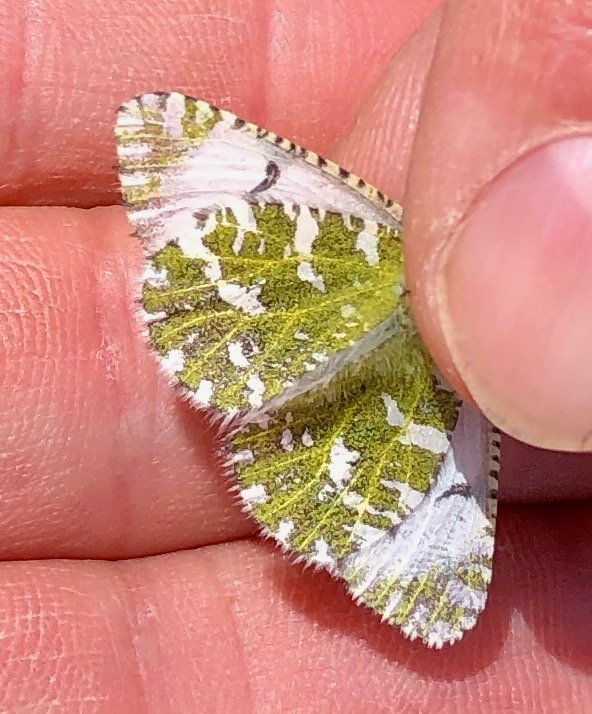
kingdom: Animalia
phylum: Arthropoda
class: Insecta
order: Lepidoptera
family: Pieridae
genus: Euchloe
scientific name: Euchloe creusa
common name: Northern Marble
